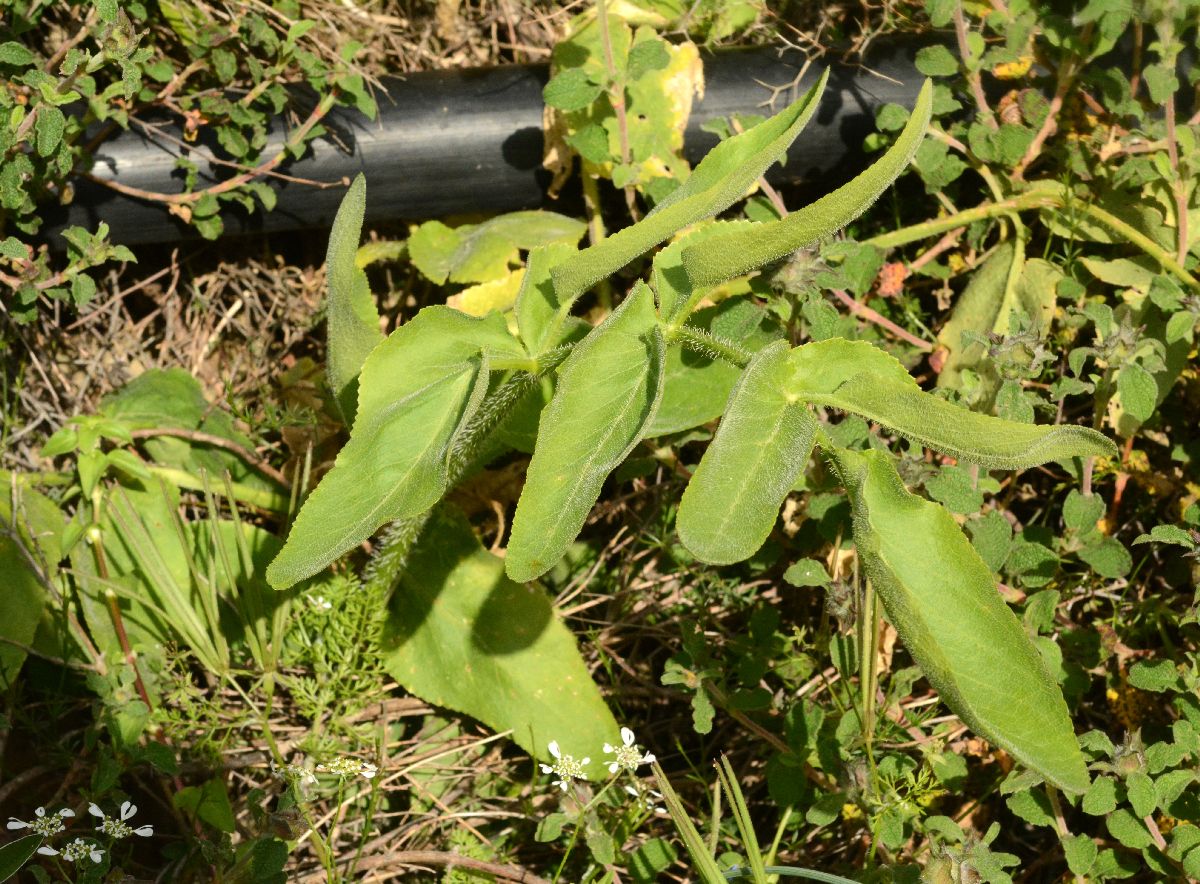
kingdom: Plantae
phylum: Tracheophyta
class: Magnoliopsida
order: Ranunculales
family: Papaveraceae
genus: Papaver
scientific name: Papaver rhoeas
